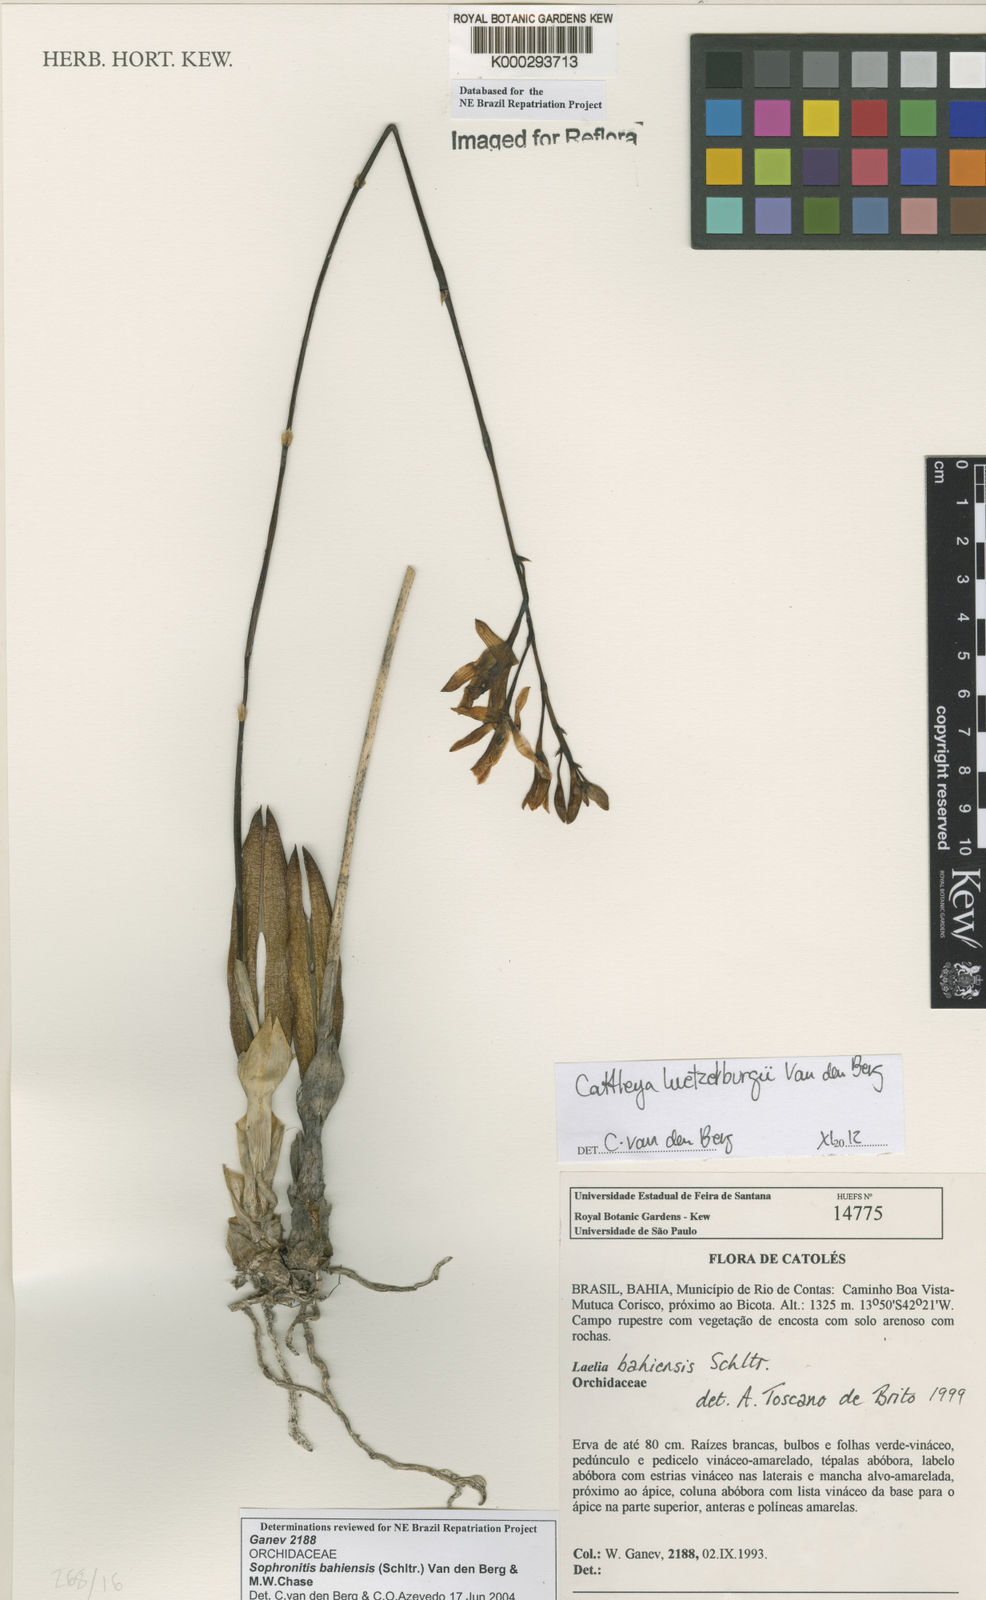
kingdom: Plantae
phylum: Tracheophyta
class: Liliopsida
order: Asparagales
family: Orchidaceae
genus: Cattleya
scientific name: Cattleya luetzelburgii
